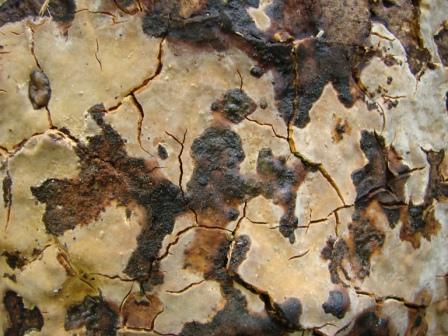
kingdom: Fungi
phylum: Basidiomycota
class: Agaricomycetes
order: Russulales
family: Peniophoraceae
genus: Scytinostroma
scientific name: Scytinostroma hemidichophyticum
